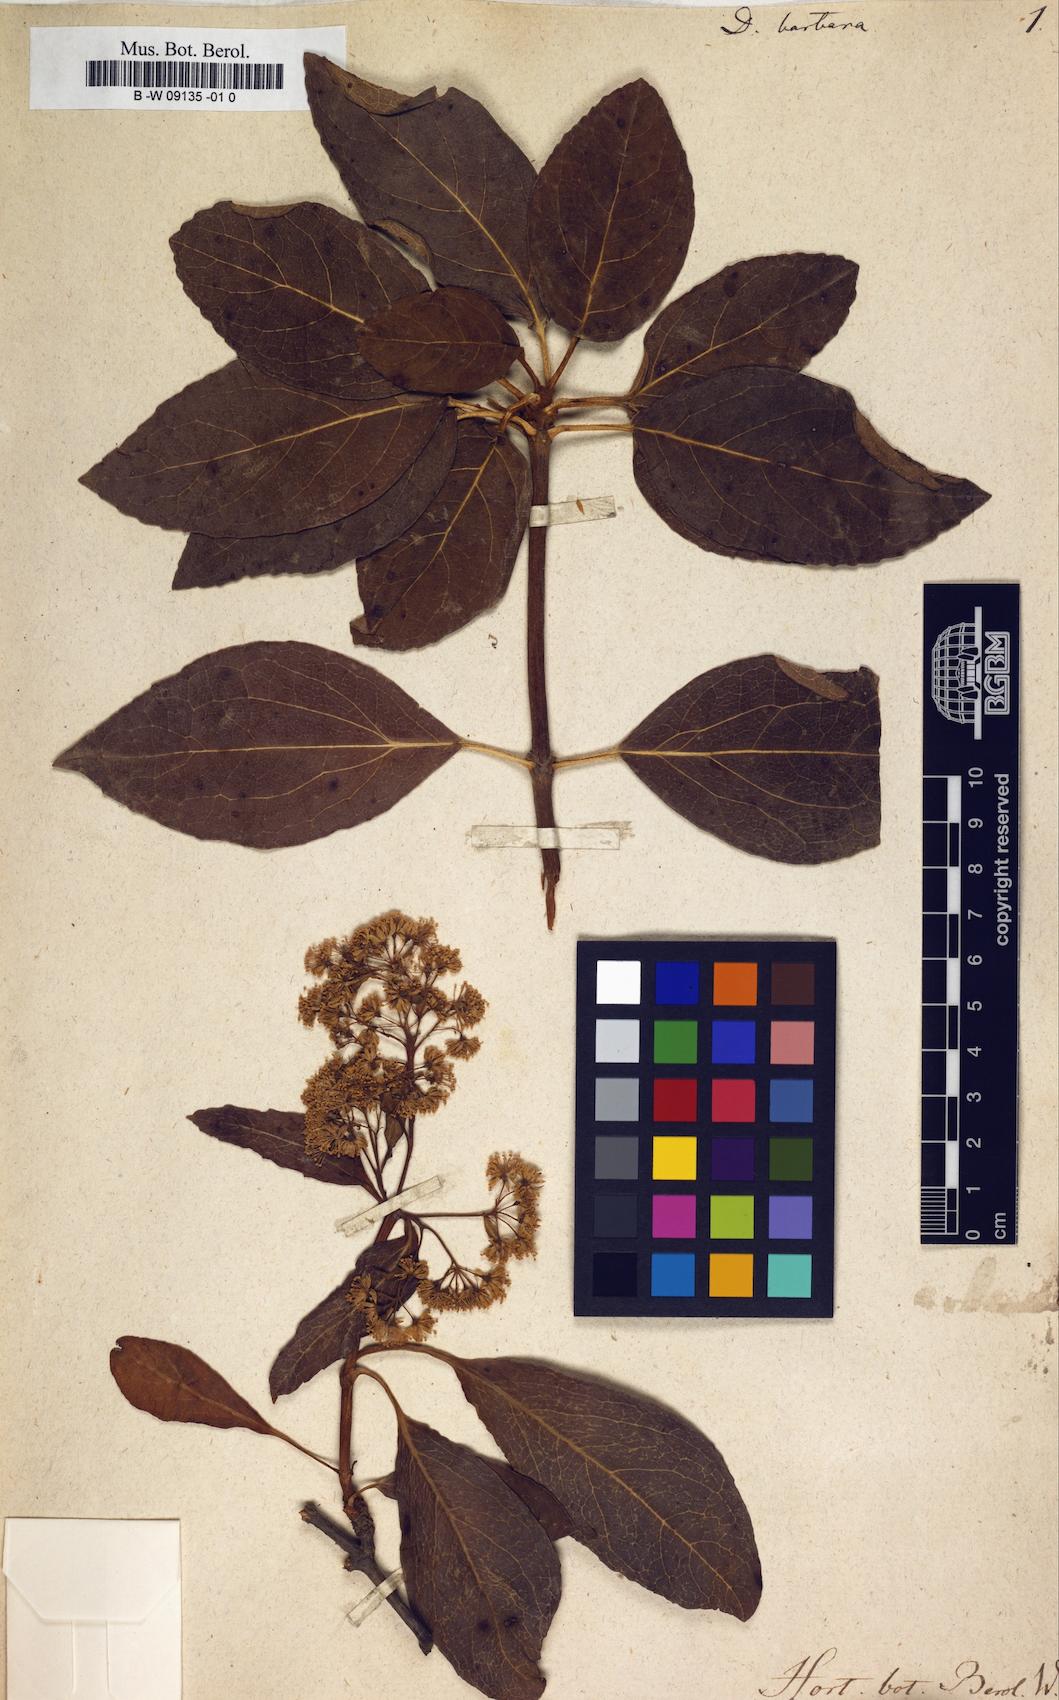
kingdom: Plantae
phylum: Tracheophyta
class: Magnoliopsida
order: Cornales
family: Hydrangeaceae
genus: Hydrangea
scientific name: Hydrangea barbara
